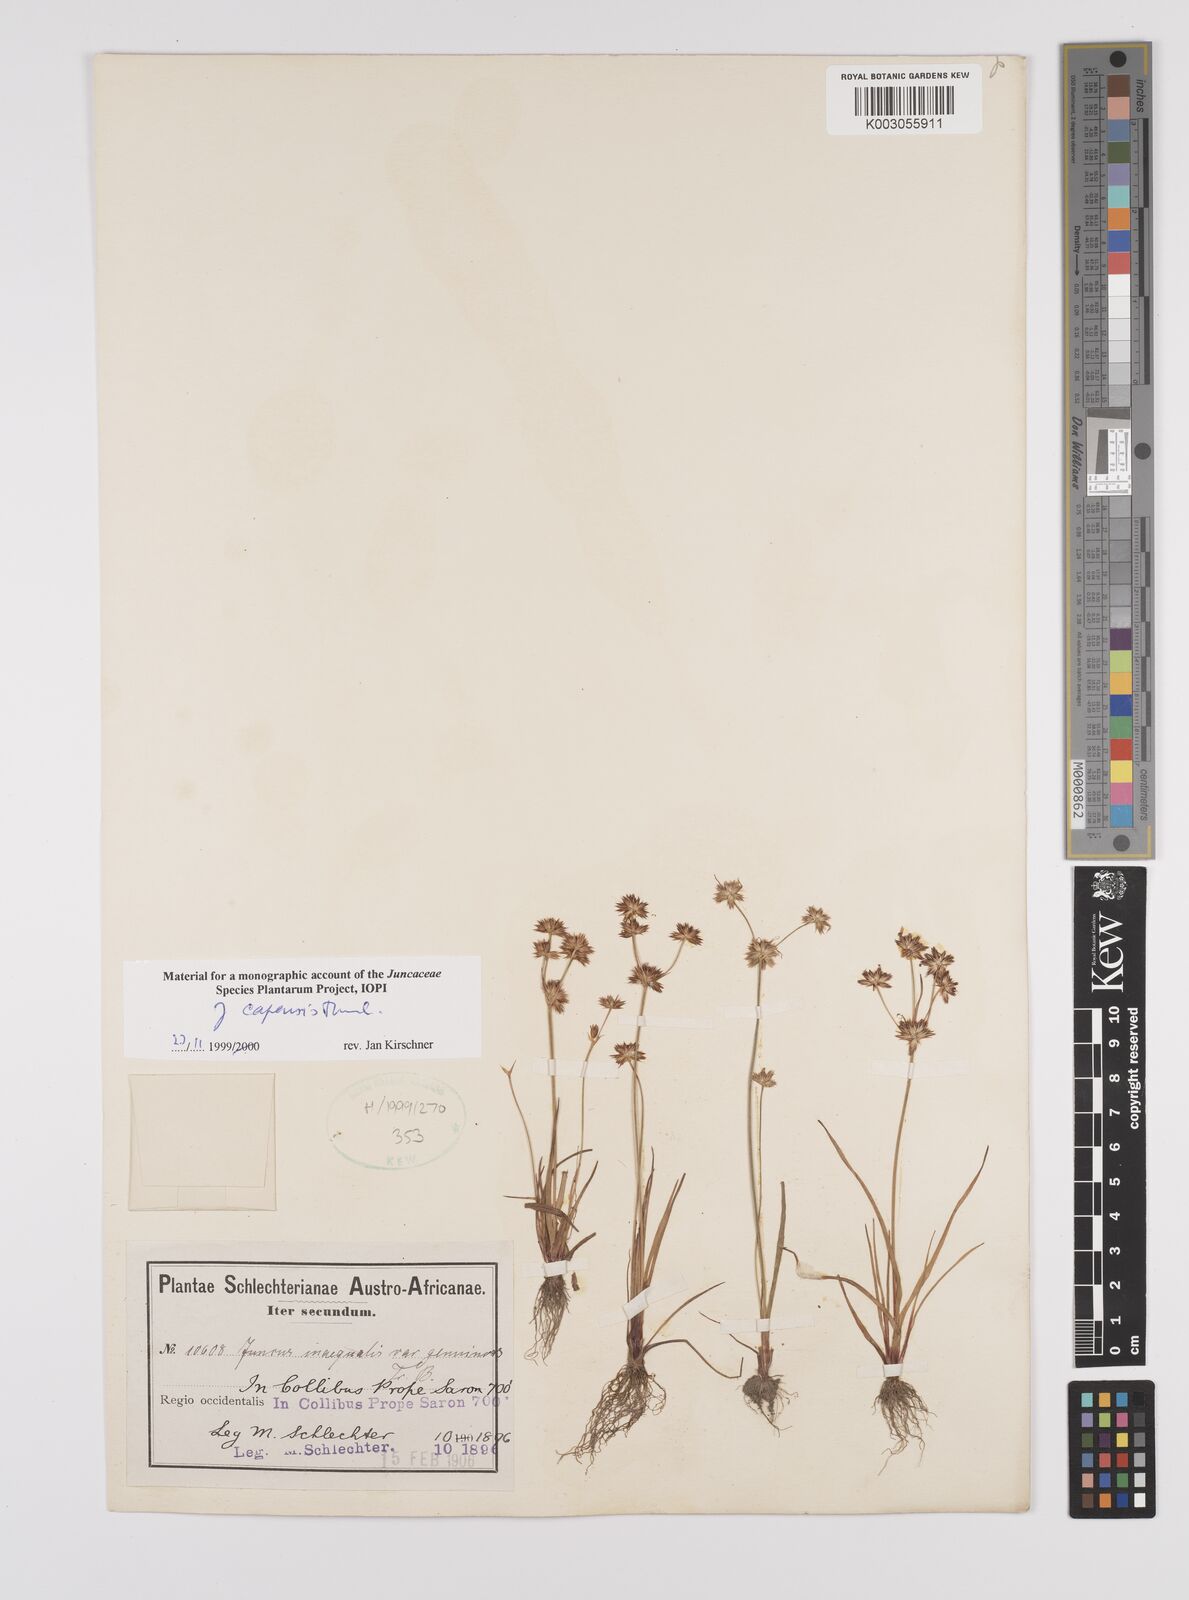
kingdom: Plantae
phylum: Tracheophyta
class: Liliopsida
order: Poales
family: Juncaceae
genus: Juncus
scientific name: Juncus capensis
